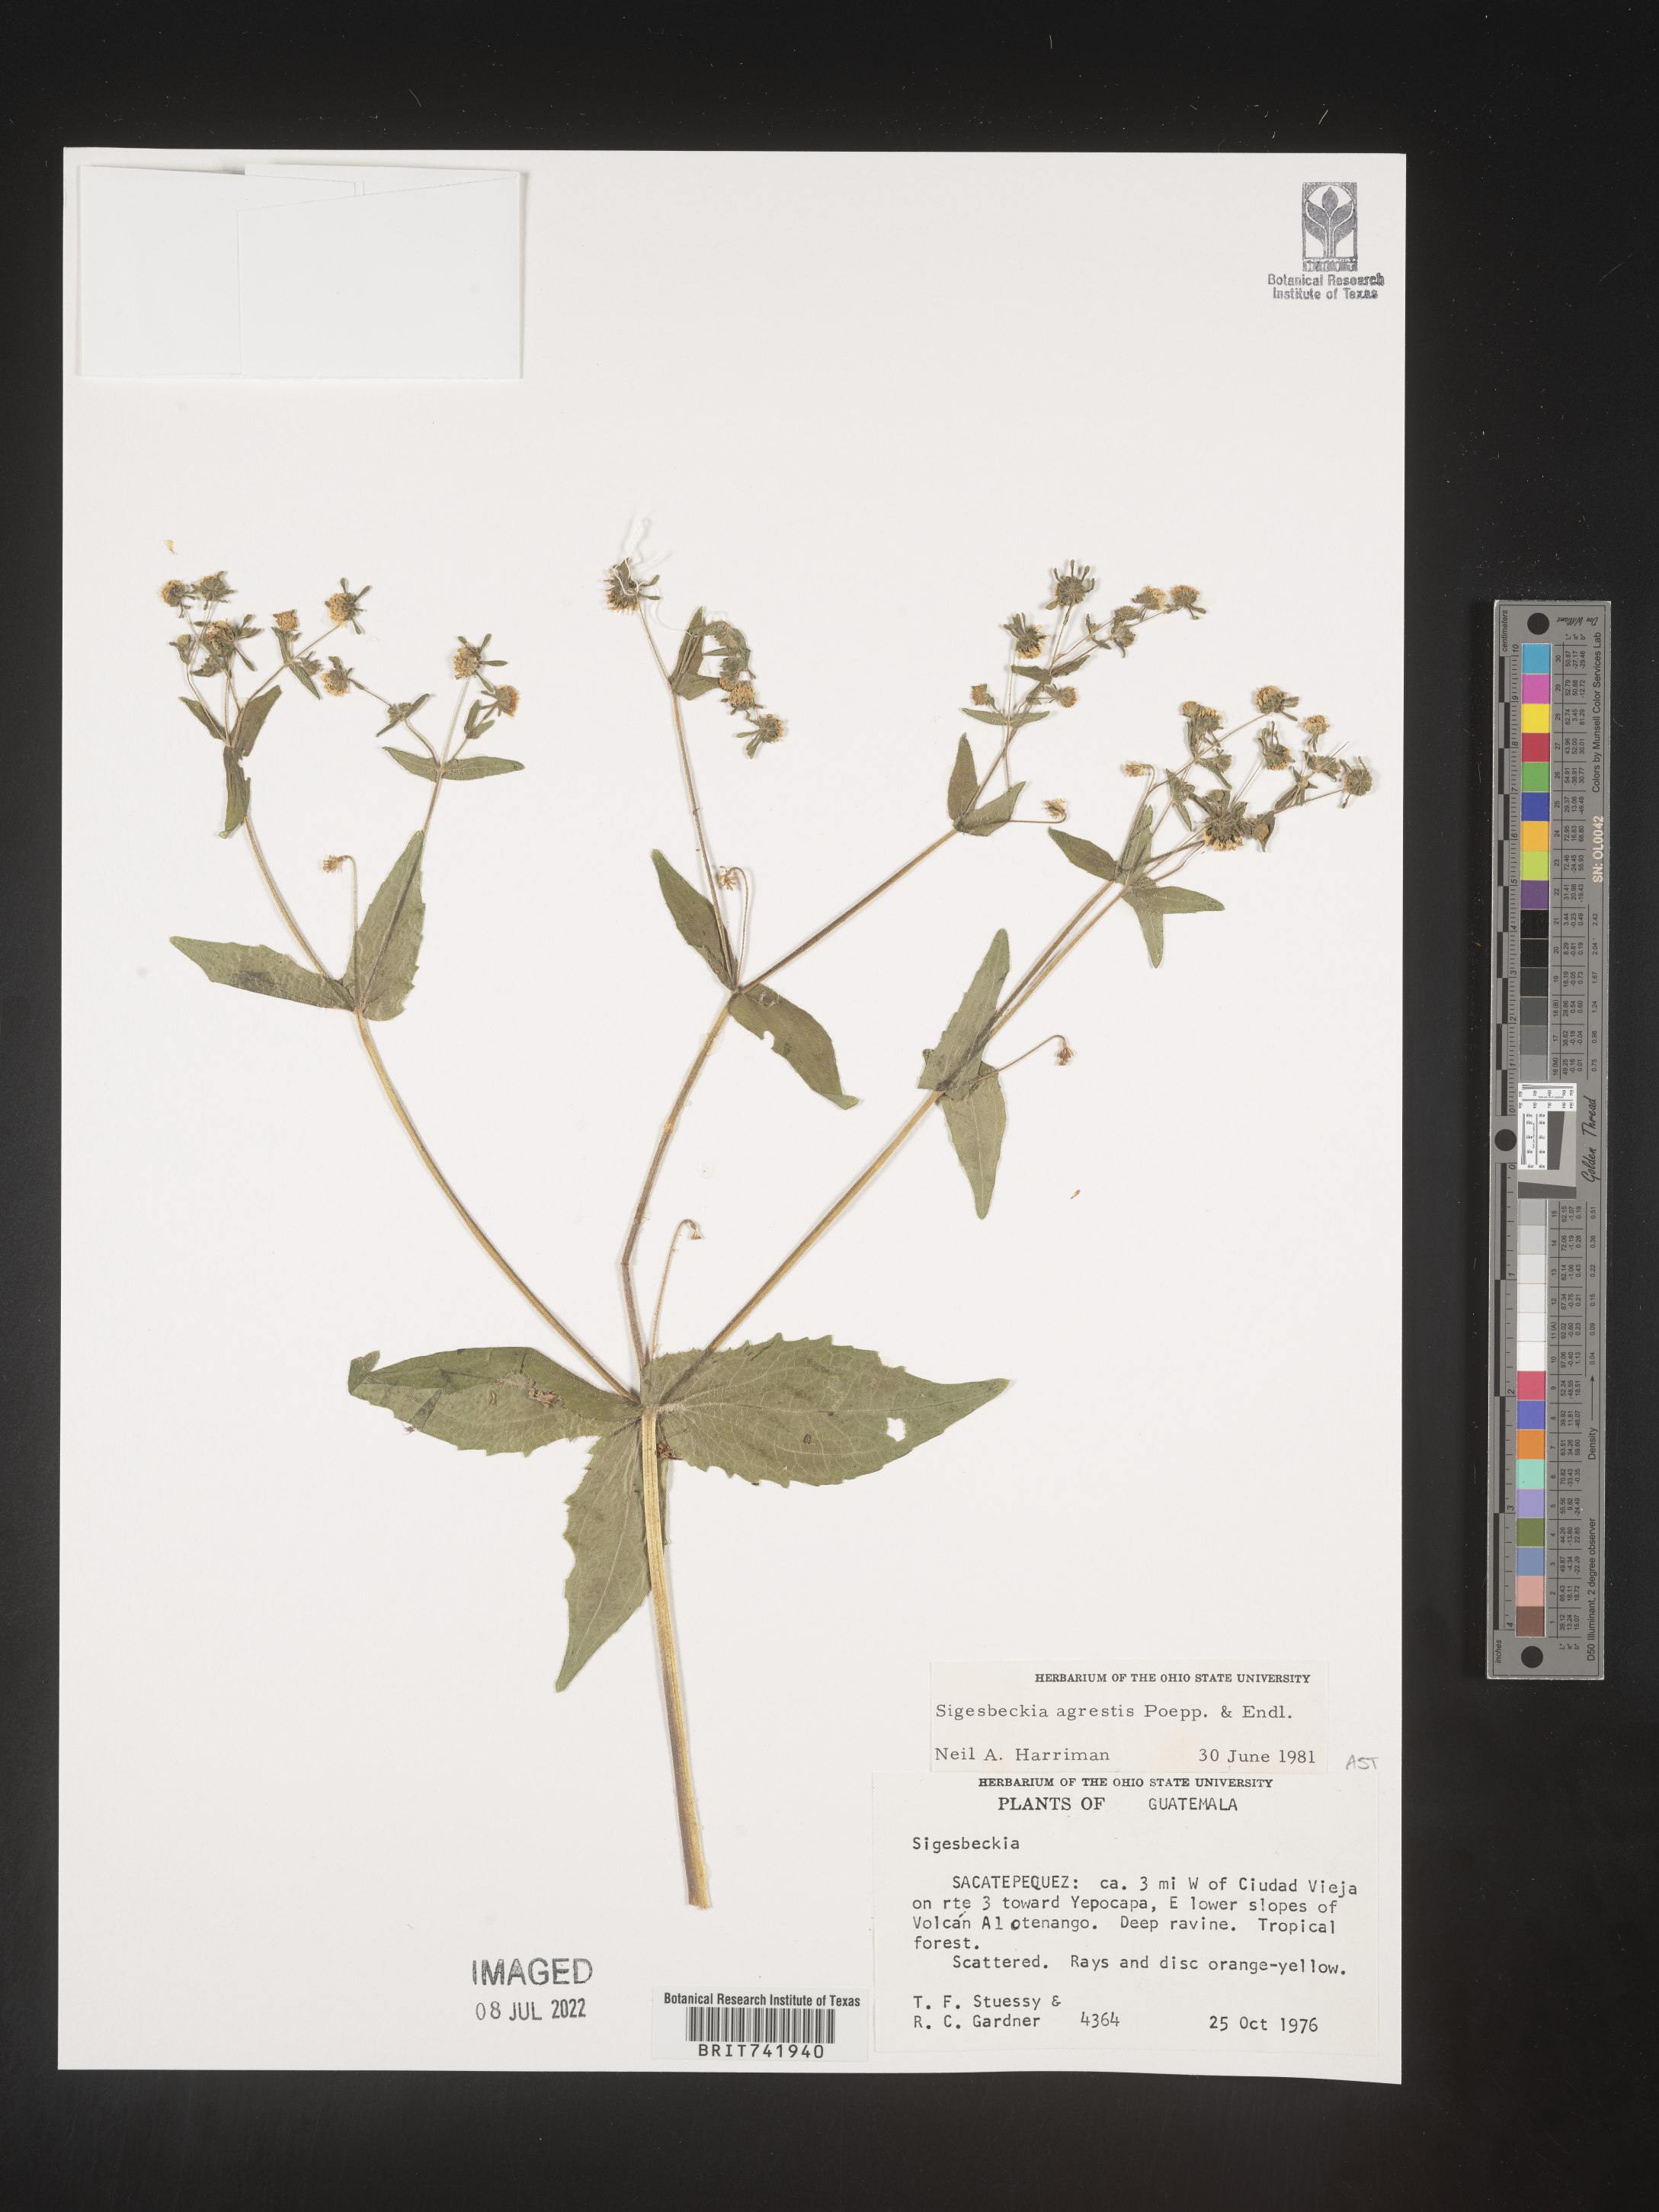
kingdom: Plantae
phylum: Tracheophyta
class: Magnoliopsida
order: Asterales
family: Asteraceae
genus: Sigesbeckia
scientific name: Sigesbeckia
